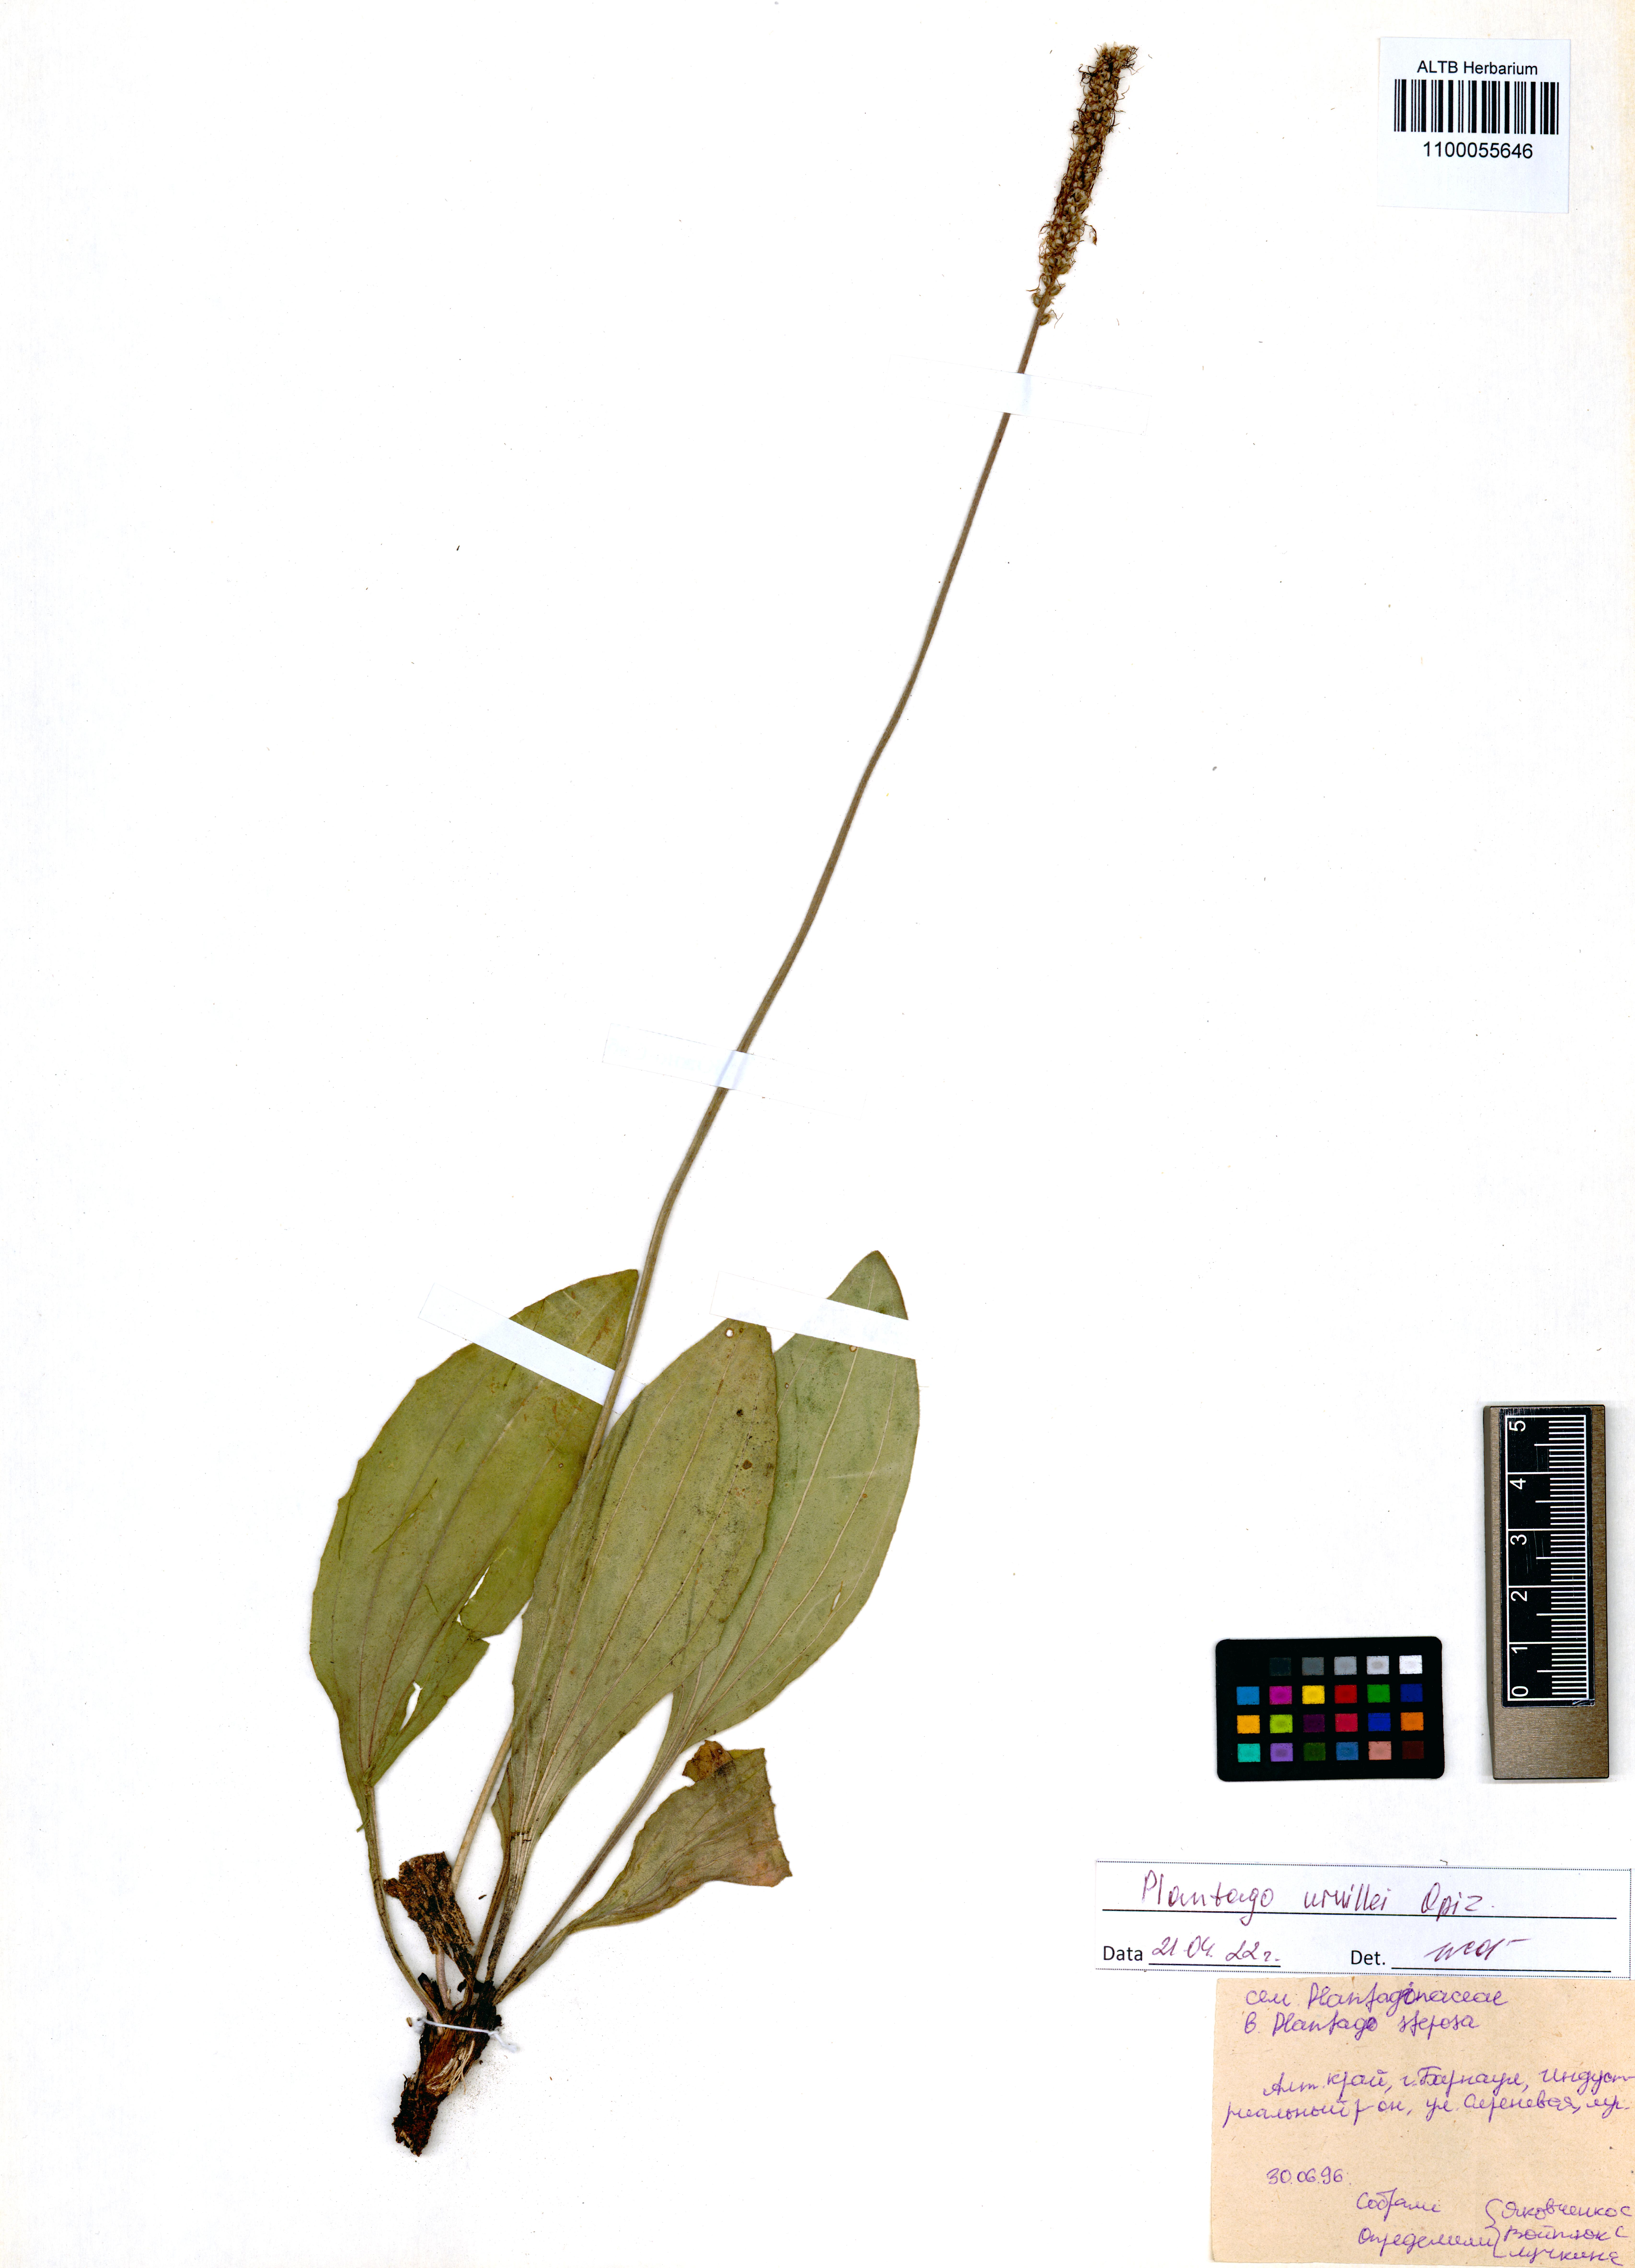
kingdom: Plantae
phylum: Tracheophyta
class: Magnoliopsida
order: Lamiales
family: Plantaginaceae
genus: Plantago
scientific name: Plantago urvillei
